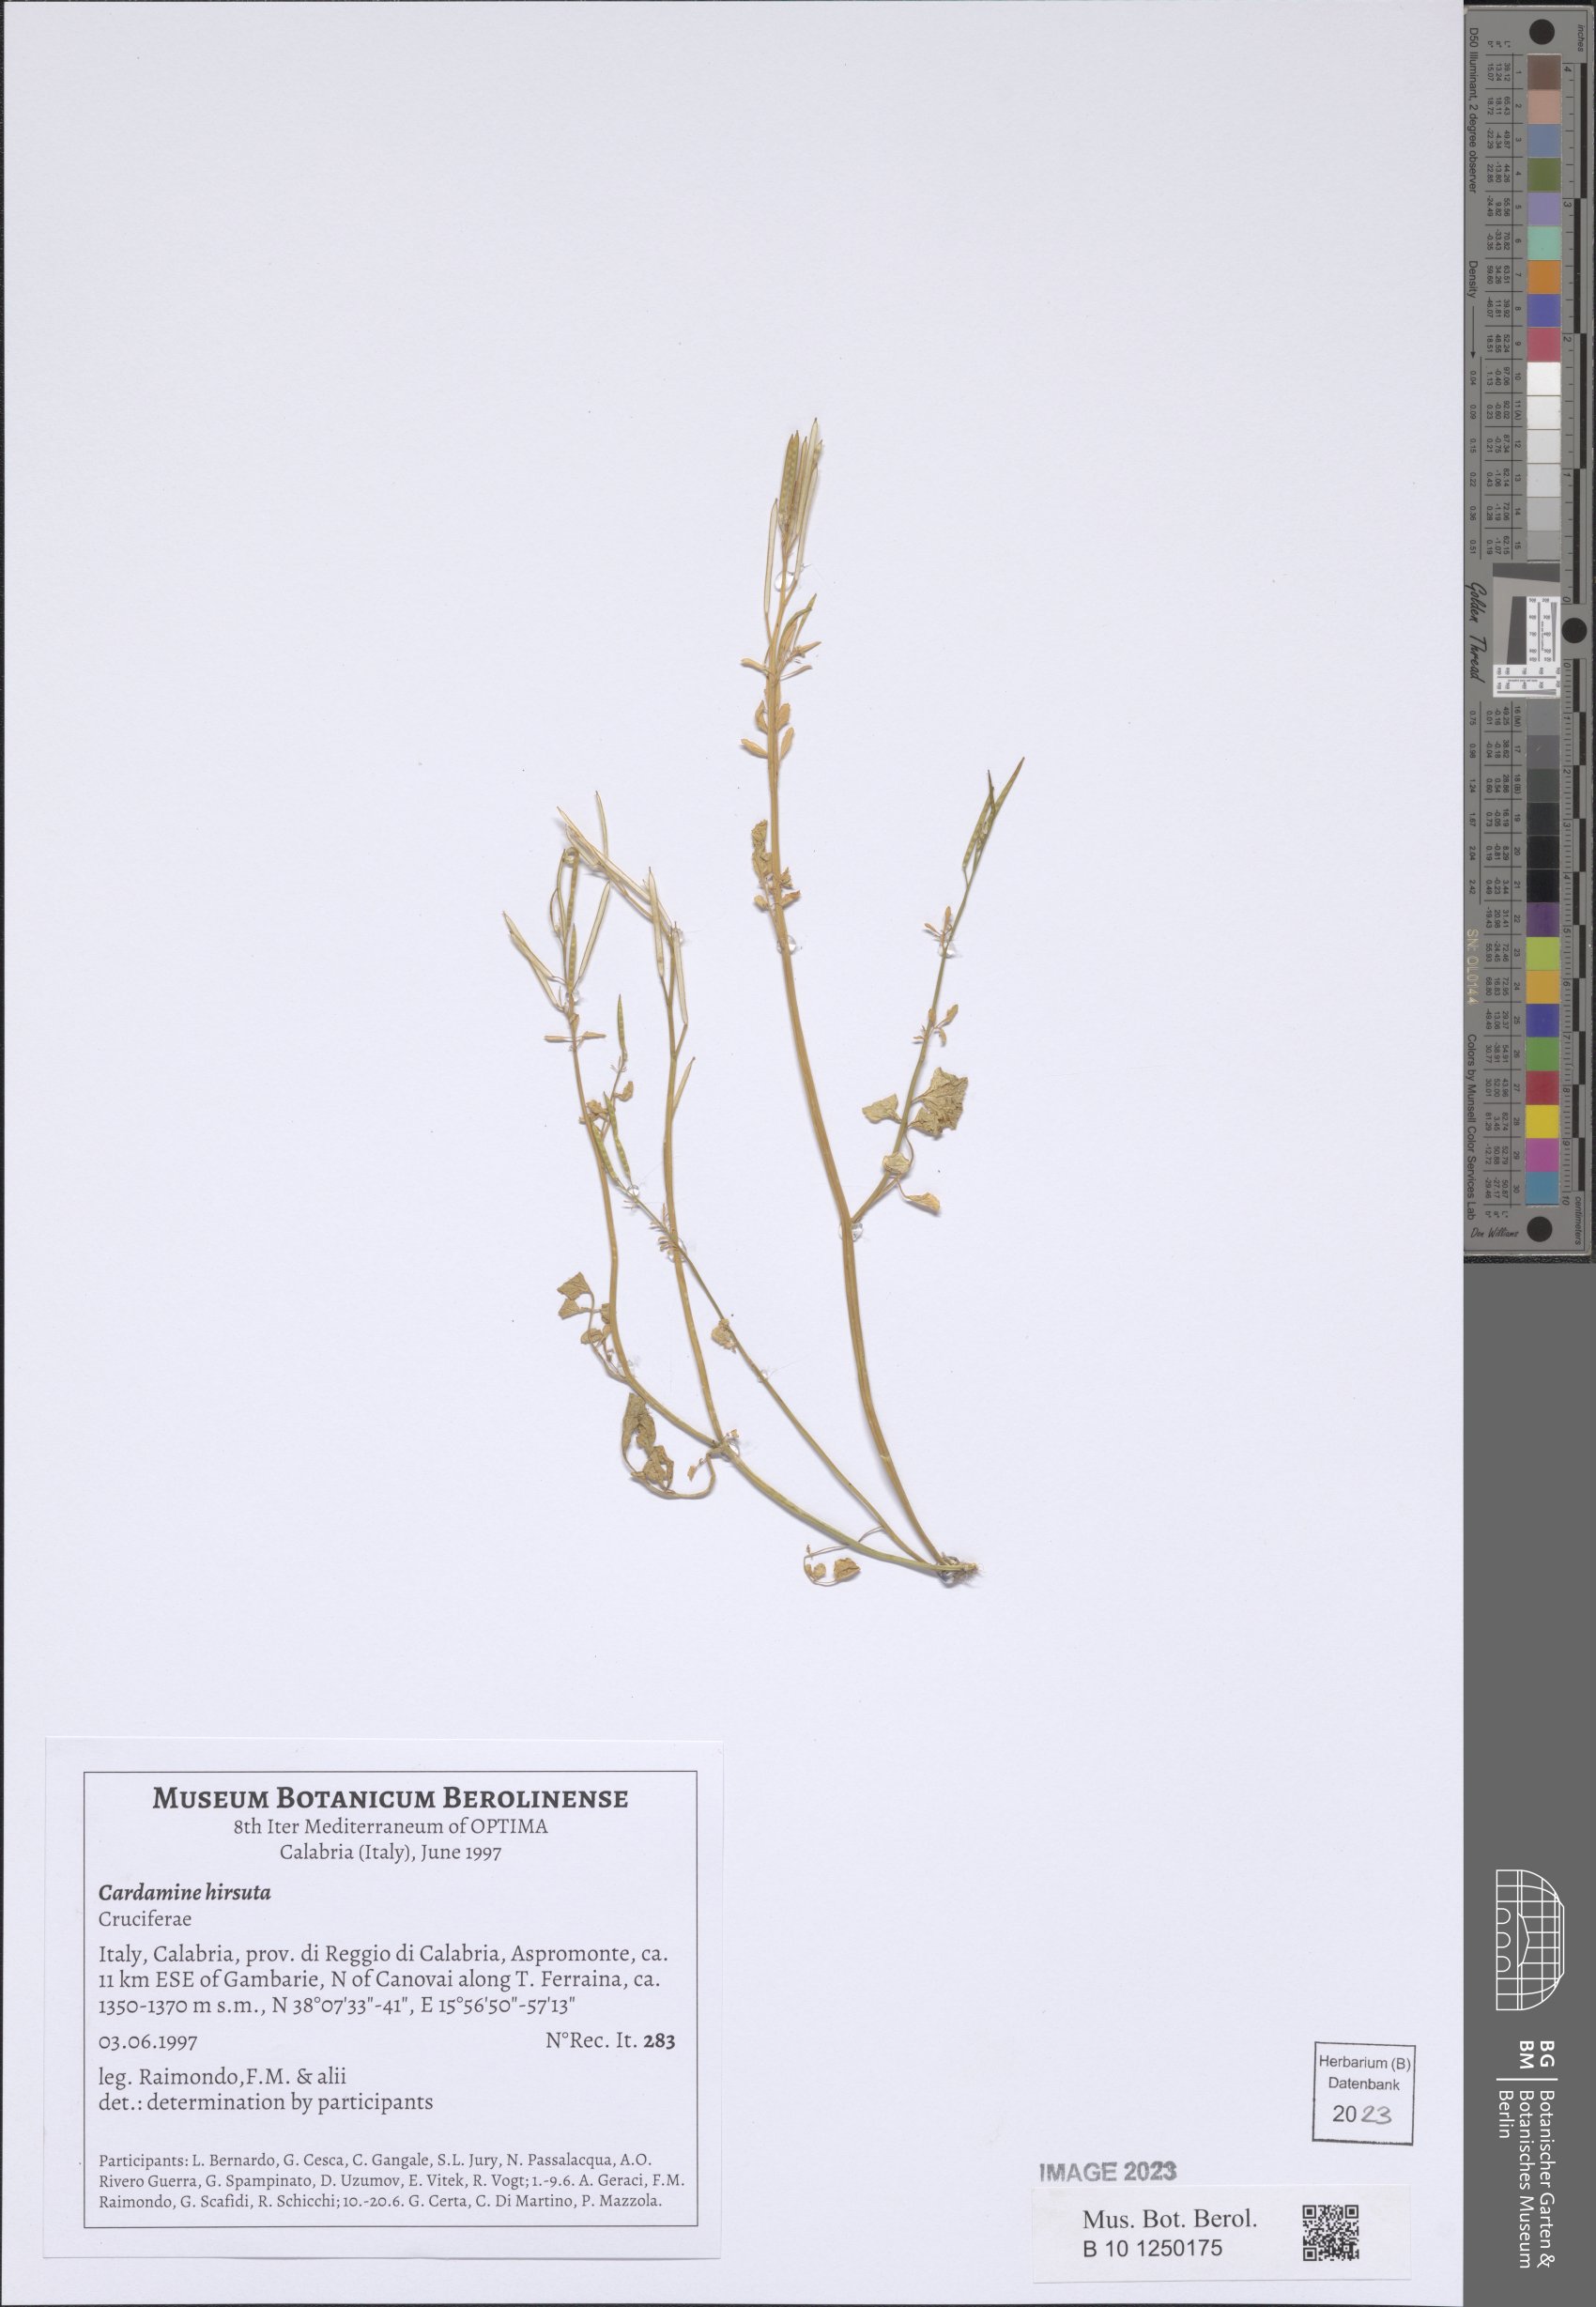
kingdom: Plantae
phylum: Tracheophyta
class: Magnoliopsida
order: Brassicales
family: Brassicaceae
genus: Cardamine
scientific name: Cardamine hirsuta
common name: Hairy bittercress
